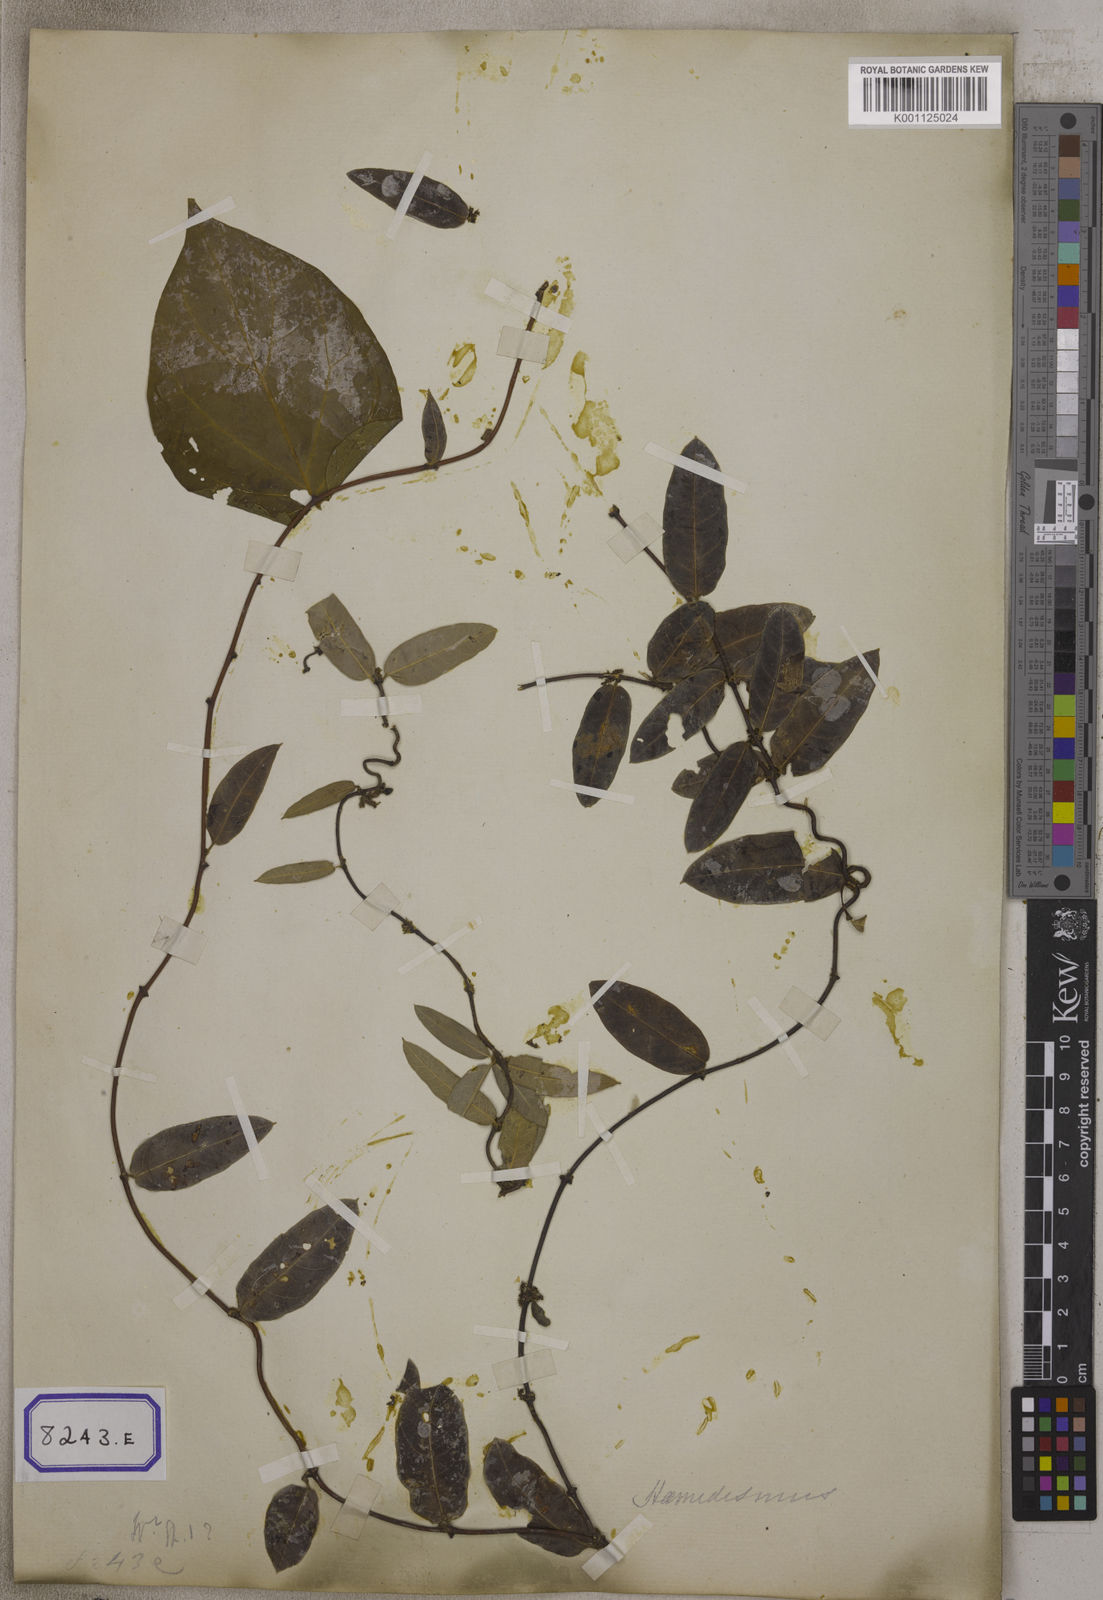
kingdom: Plantae
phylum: Tracheophyta
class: Magnoliopsida
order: Gentianales
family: Apocynaceae
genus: Hemidesmus
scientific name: Hemidesmus indicus
